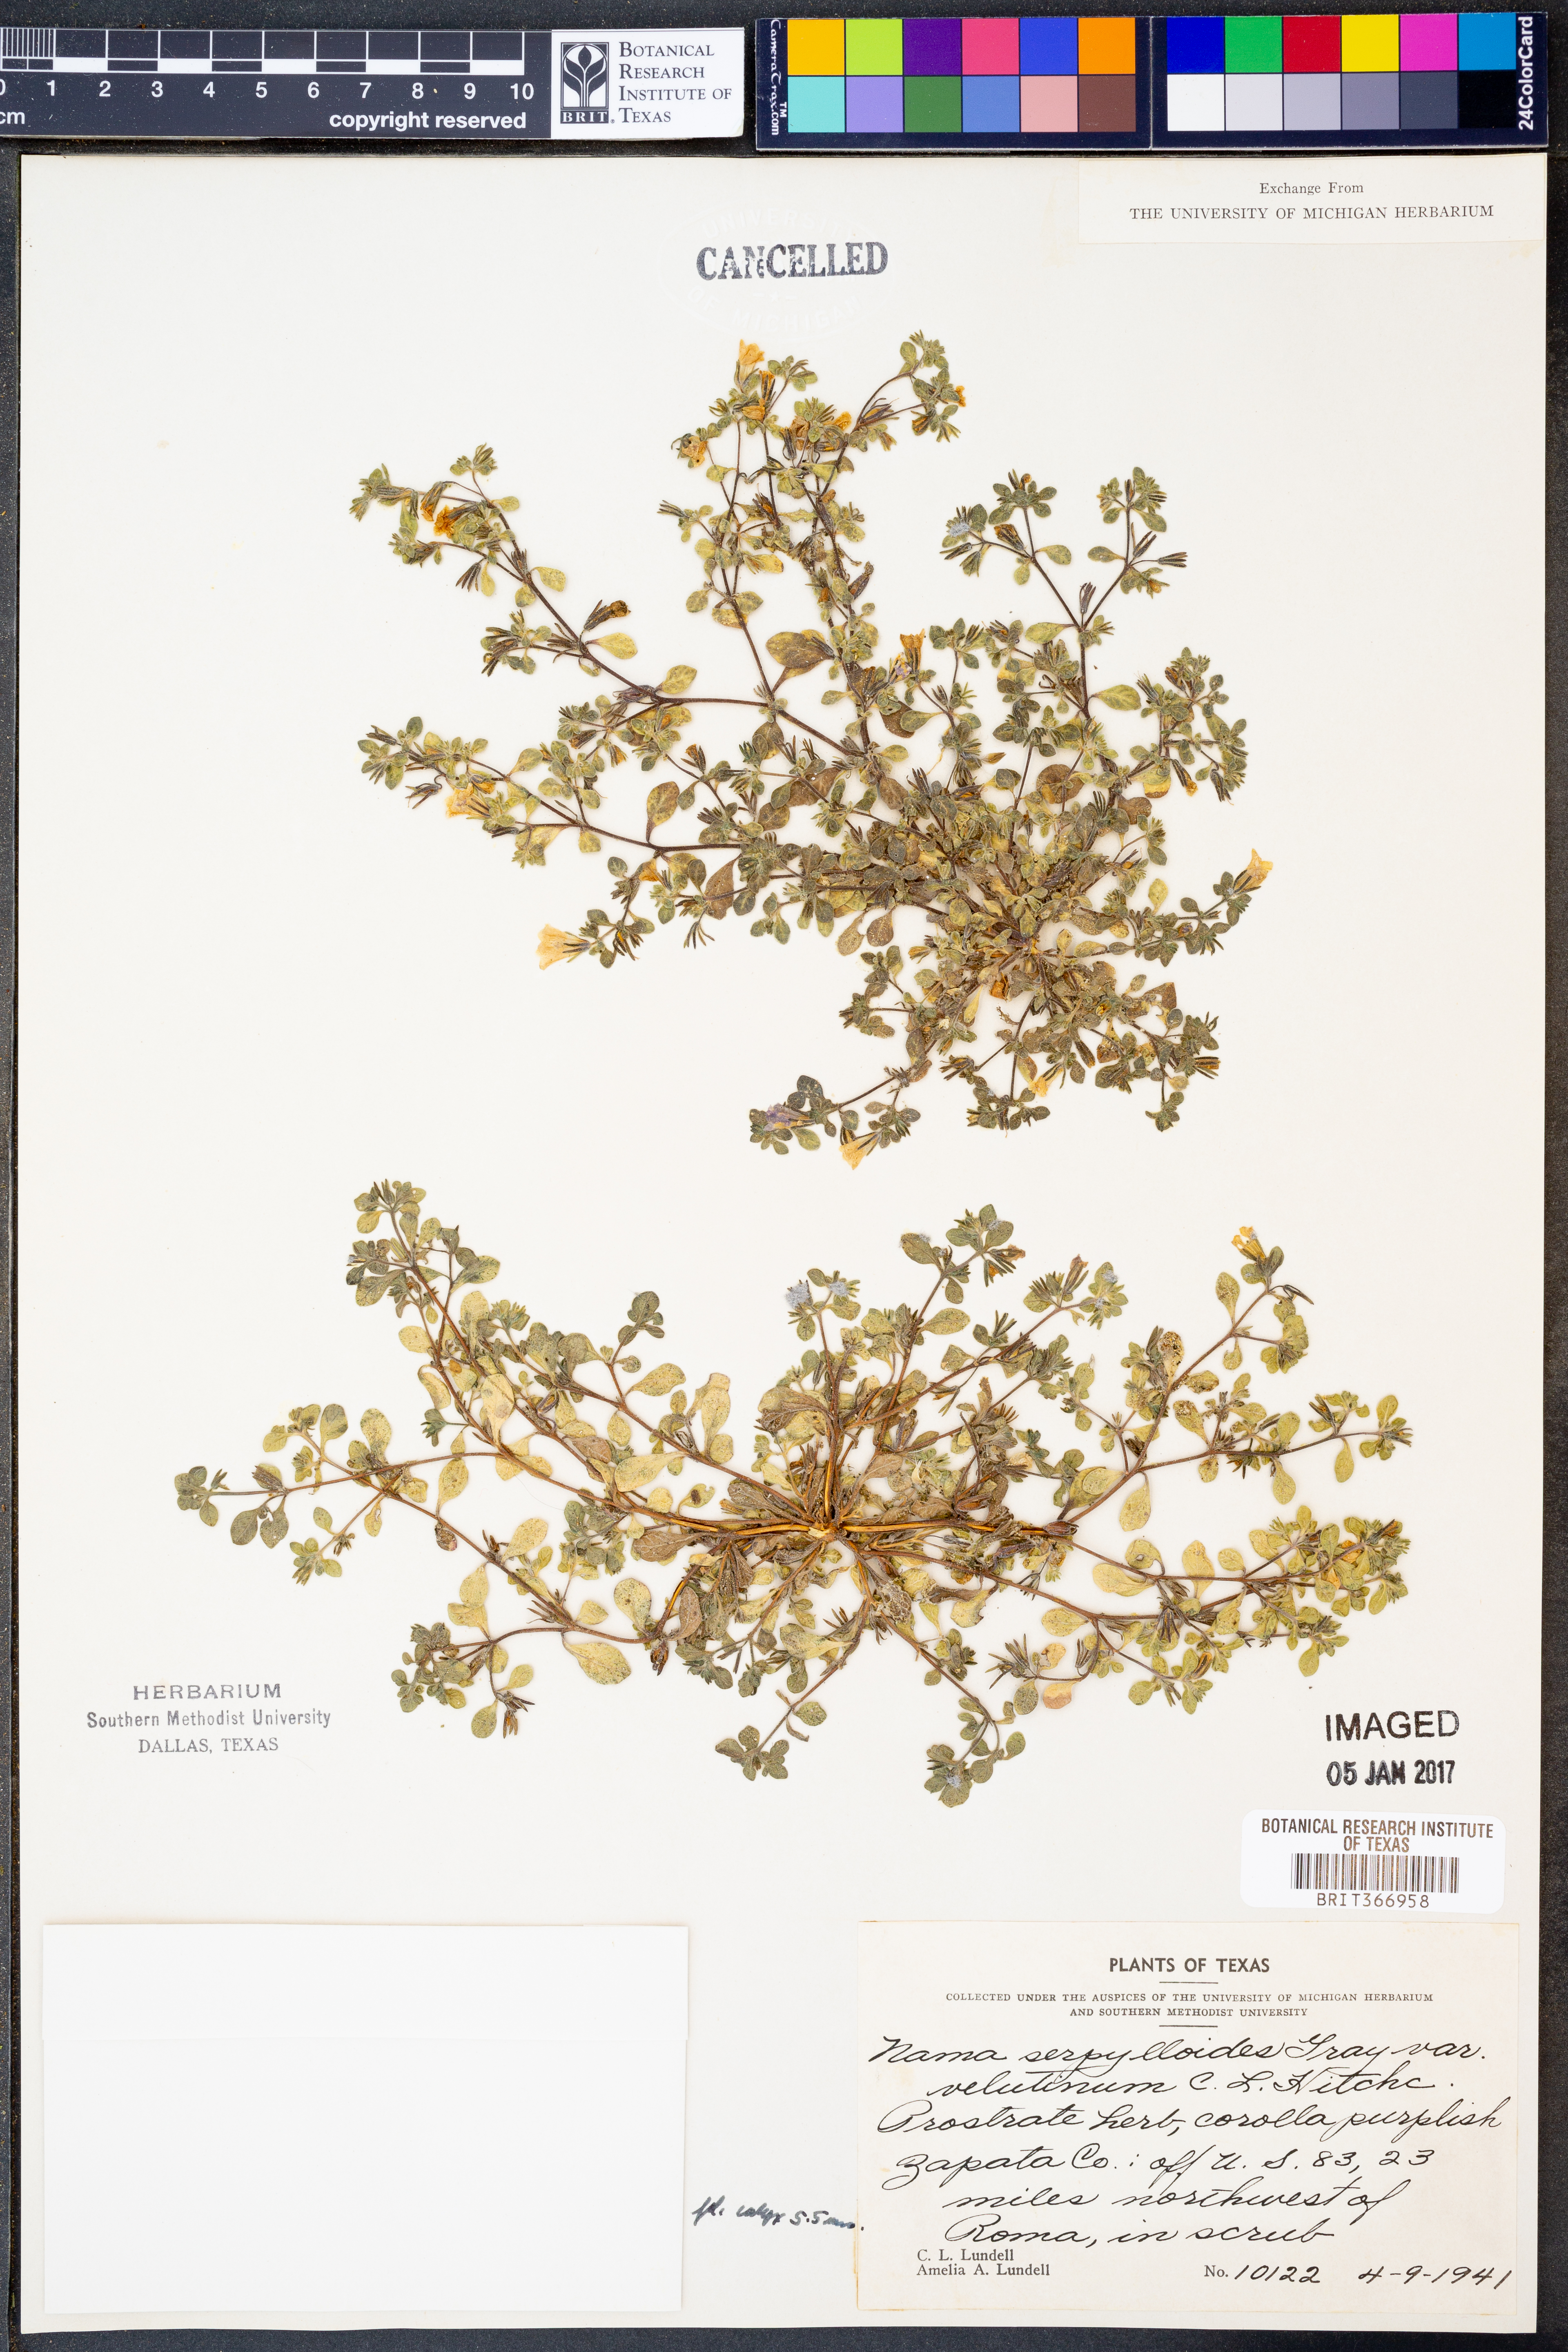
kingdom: Plantae
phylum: Tracheophyta
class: Magnoliopsida
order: Boraginales
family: Namaceae
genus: Nama
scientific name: Nama
